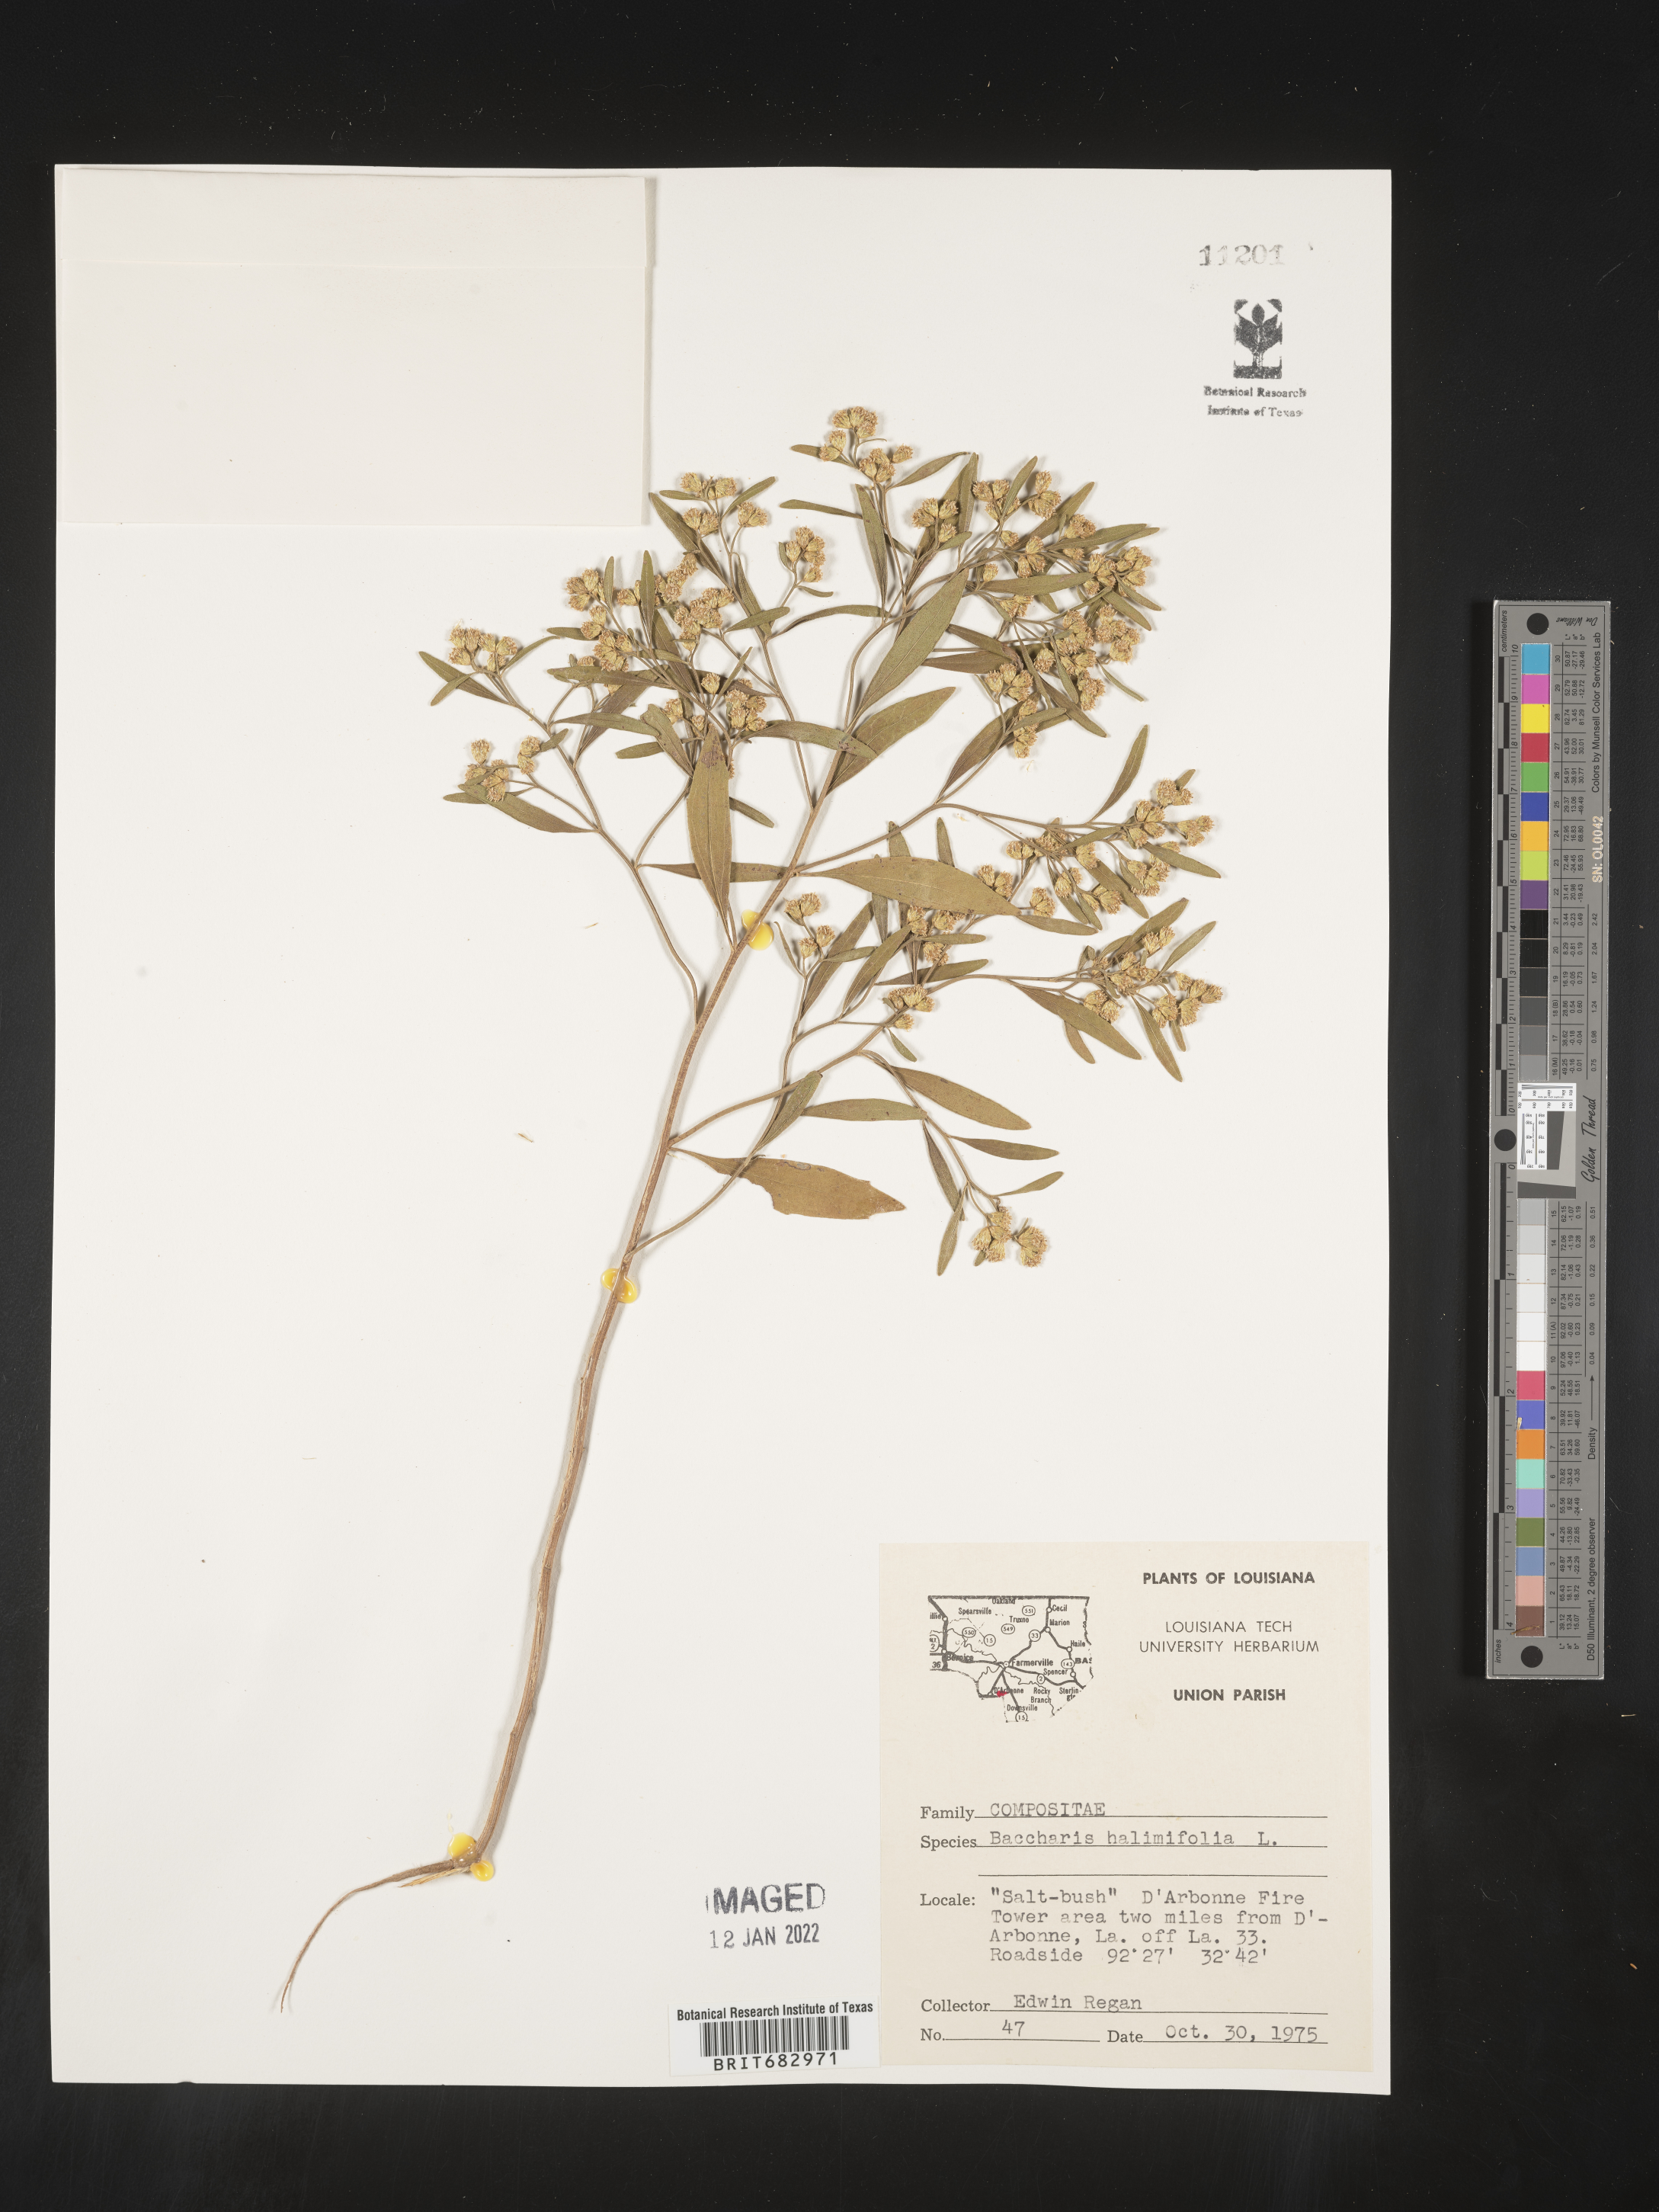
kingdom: Plantae
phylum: Tracheophyta
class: Magnoliopsida
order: Asterales
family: Asteraceae
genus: Nidorella
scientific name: Nidorella ivifolia
